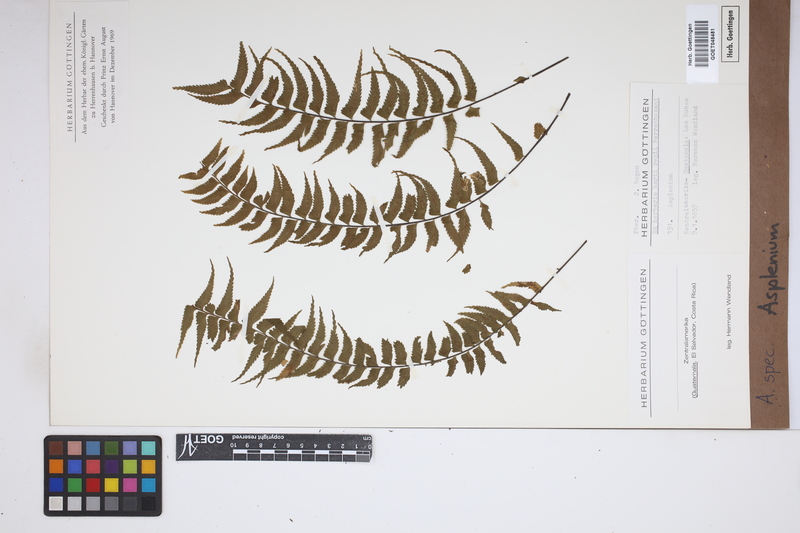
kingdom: Plantae
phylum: Tracheophyta
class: Polypodiopsida
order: Polypodiales
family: Aspleniaceae
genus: Asplenium
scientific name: Asplenium
